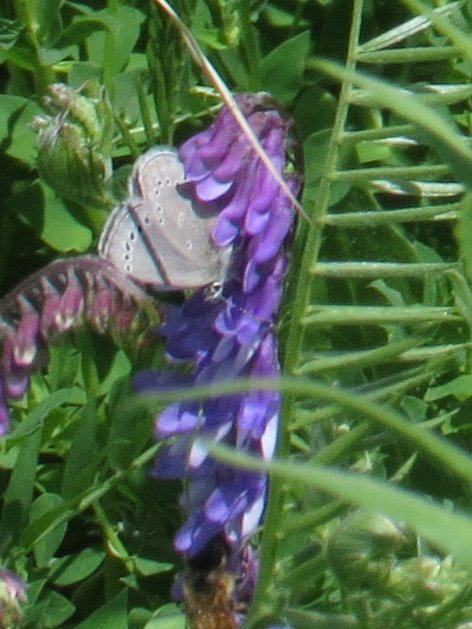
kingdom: Animalia
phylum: Arthropoda
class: Insecta
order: Lepidoptera
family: Lycaenidae
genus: Glaucopsyche
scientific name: Glaucopsyche lygdamus
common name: Silvery Blue
